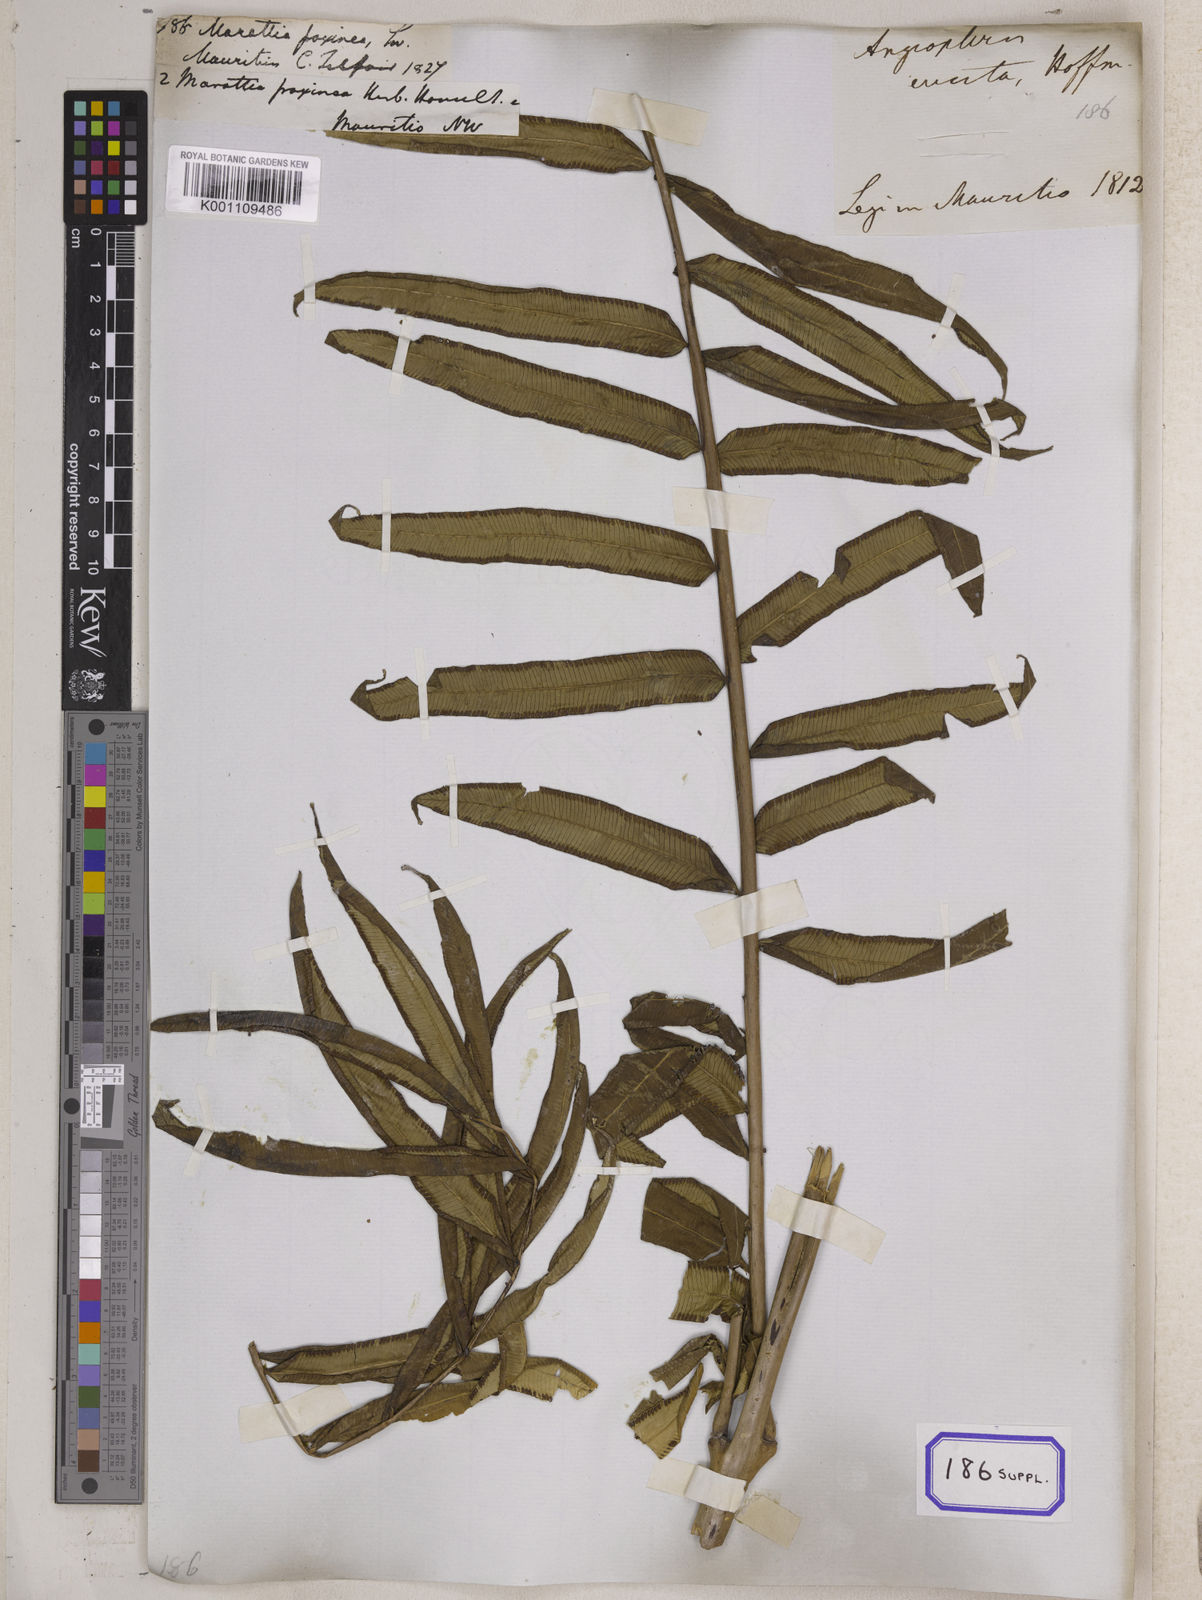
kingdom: Plantae
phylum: Tracheophyta
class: Polypodiopsida
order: Marattiales
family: Marattiaceae
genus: Marattia
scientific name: Marattia
